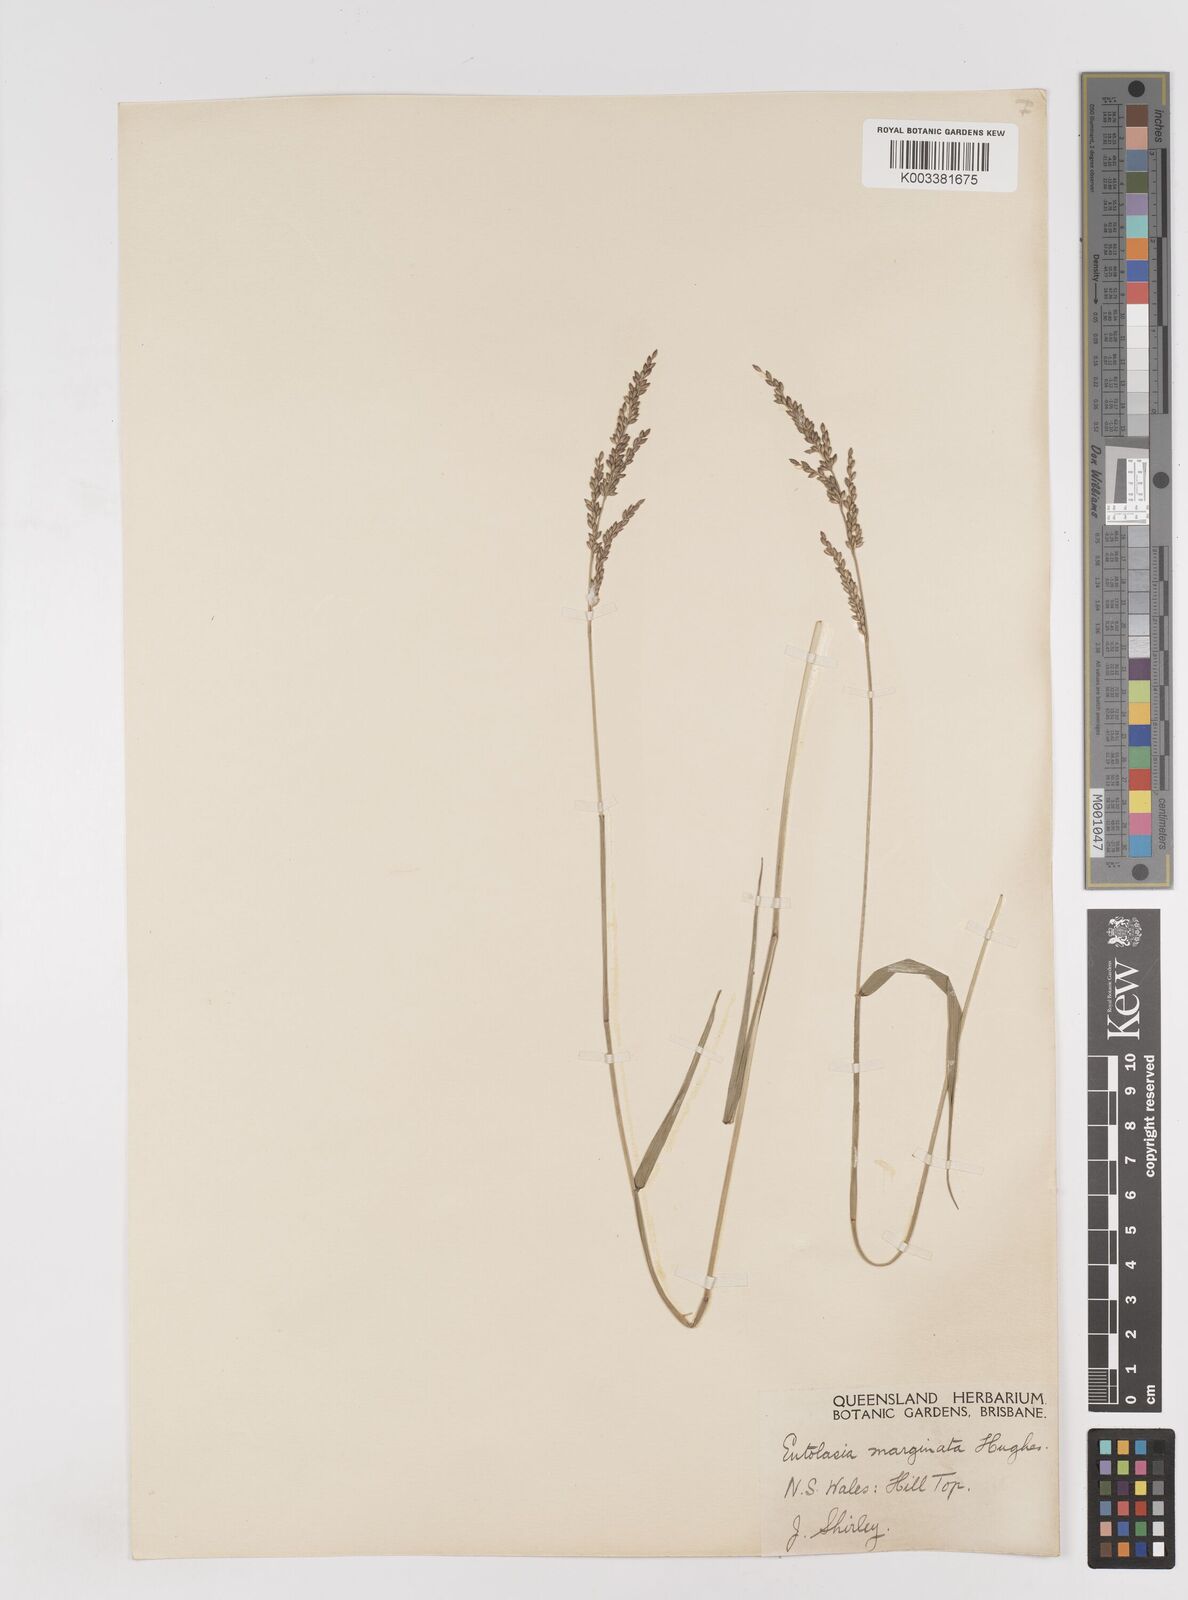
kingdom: Plantae
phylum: Tracheophyta
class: Liliopsida
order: Poales
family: Poaceae
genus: Entolasia
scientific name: Entolasia marginata
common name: Australian panicgrass
